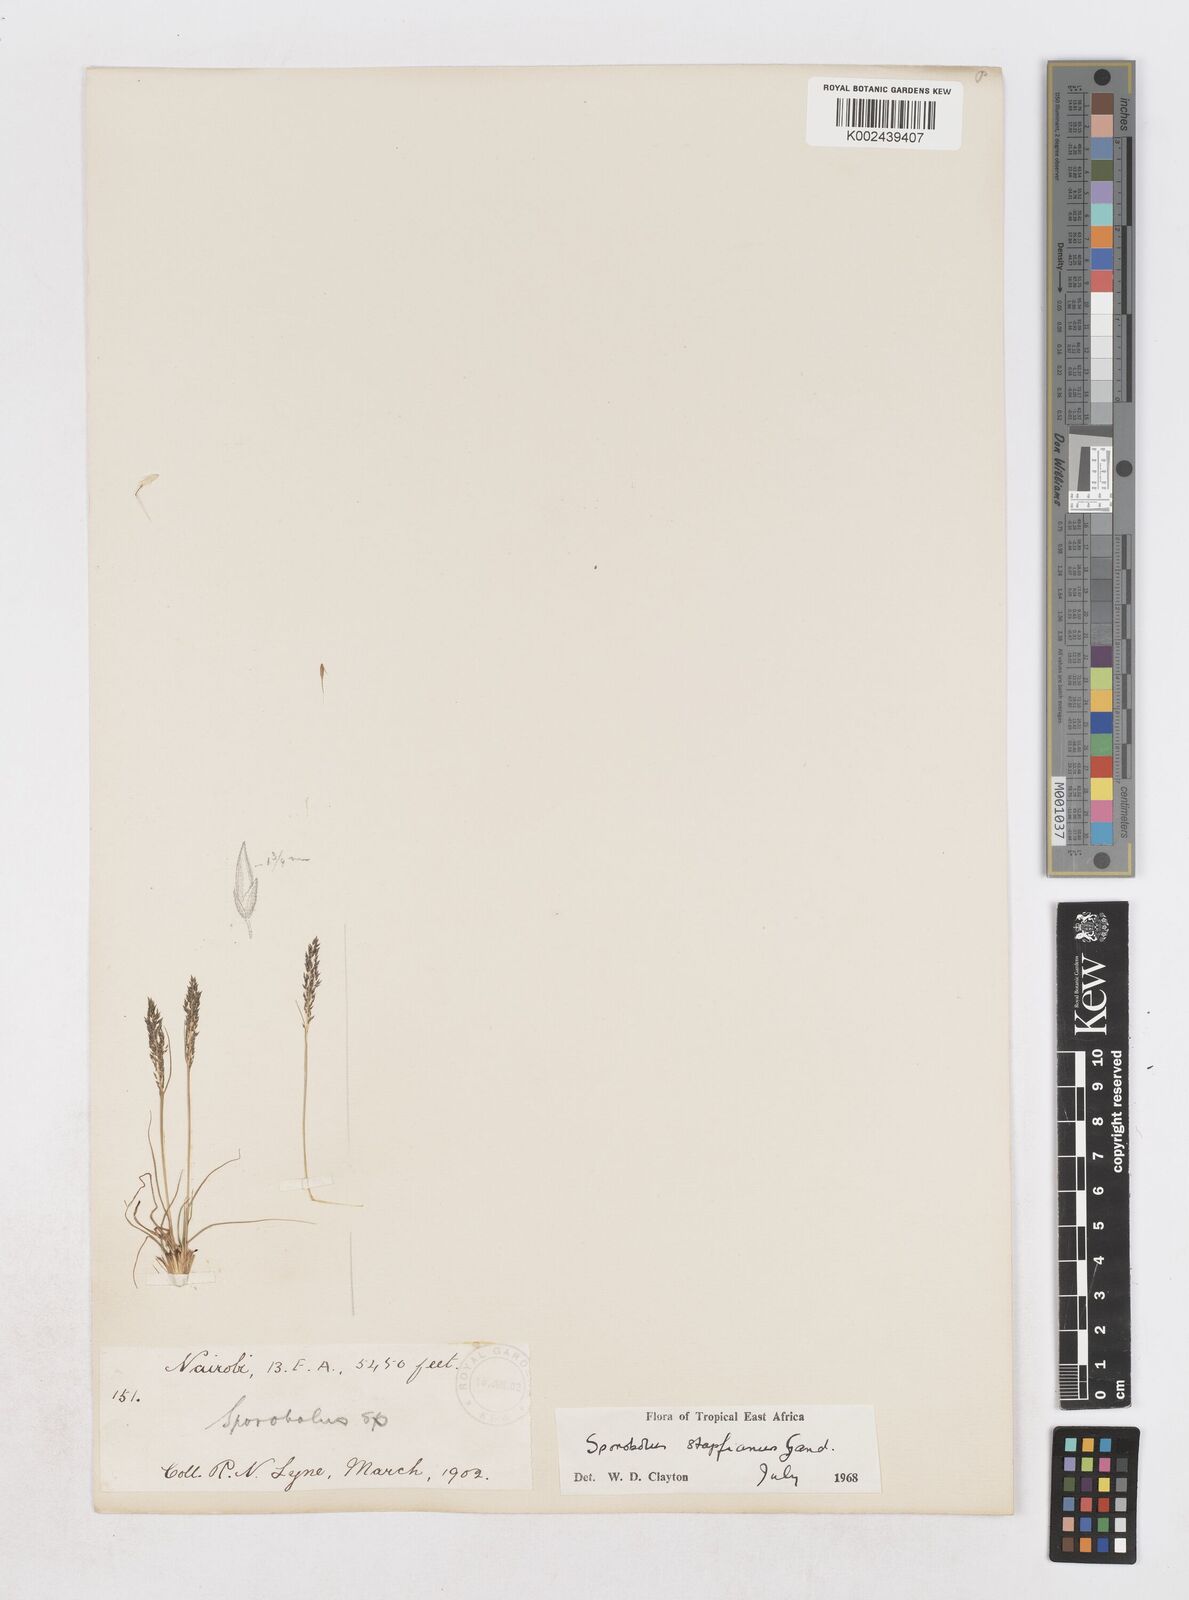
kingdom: Plantae
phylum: Tracheophyta
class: Liliopsida
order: Poales
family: Poaceae
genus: Sporobolus
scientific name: Sporobolus stapfianus
